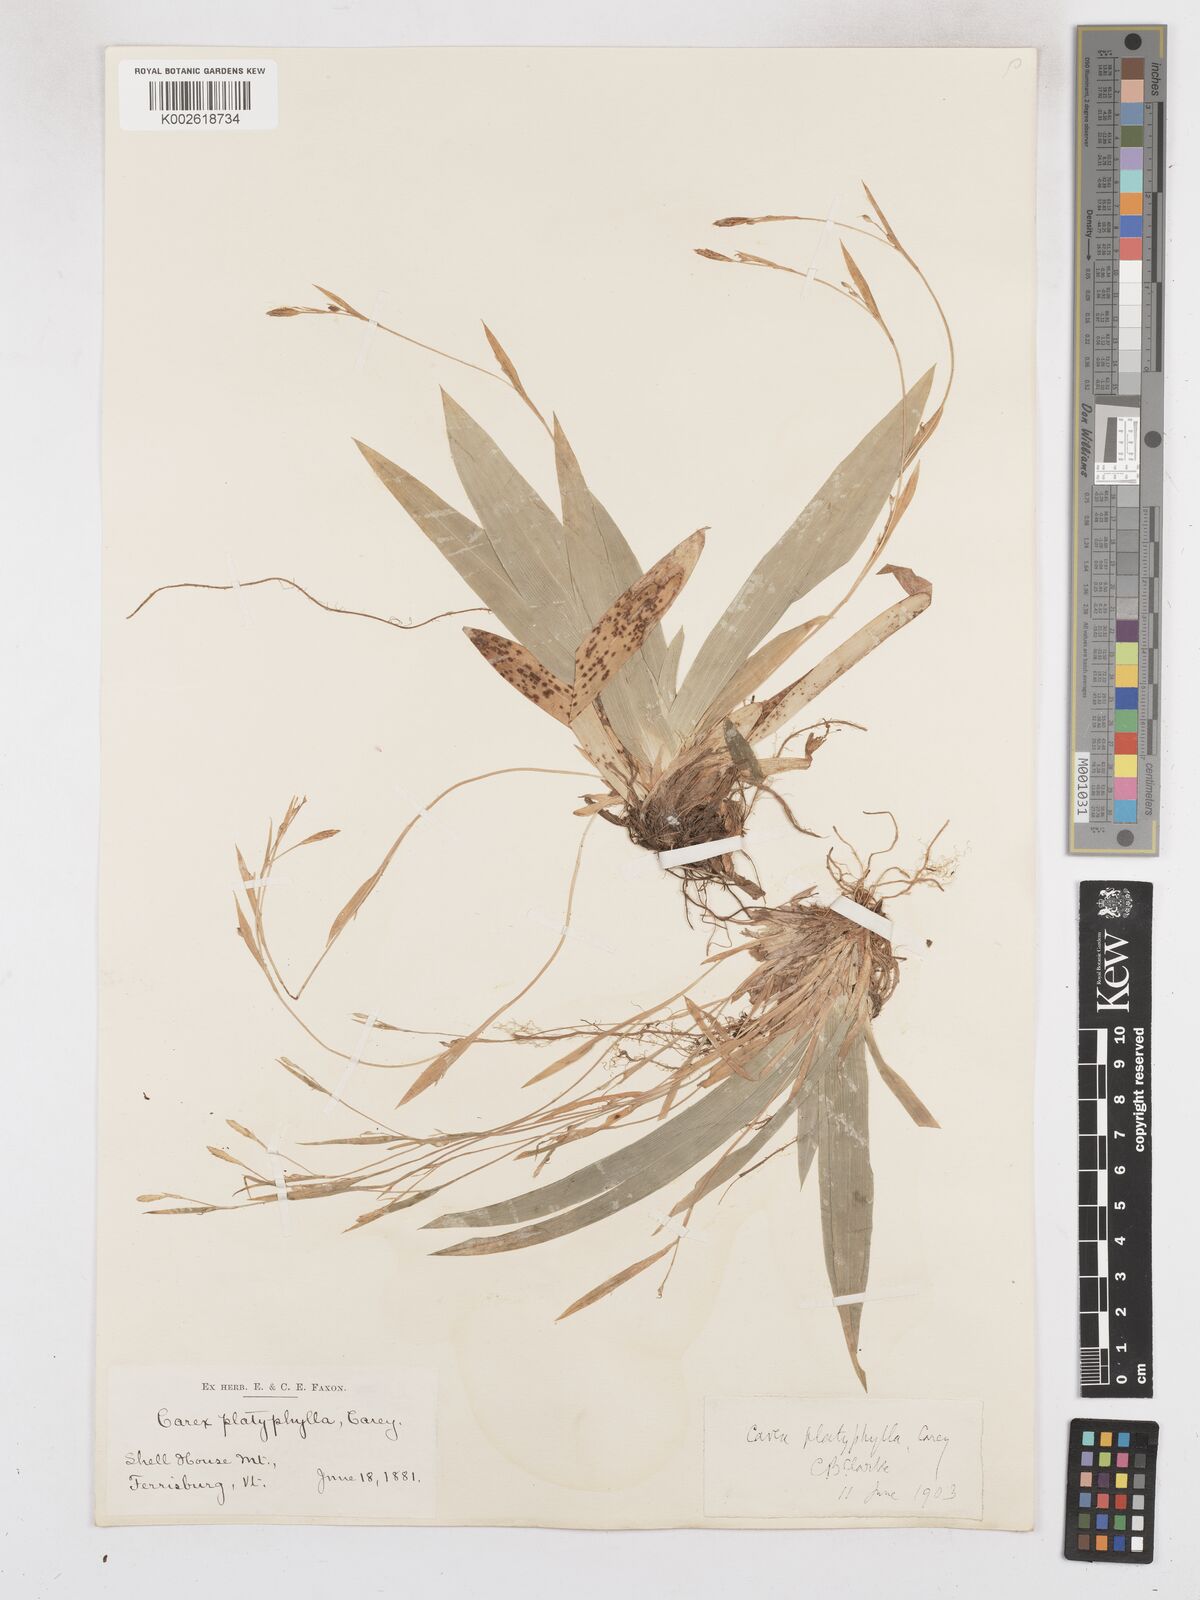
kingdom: Plantae
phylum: Tracheophyta
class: Liliopsida
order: Poales
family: Cyperaceae
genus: Carex
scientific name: Carex platyphylla
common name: Broad-leaved sedge
